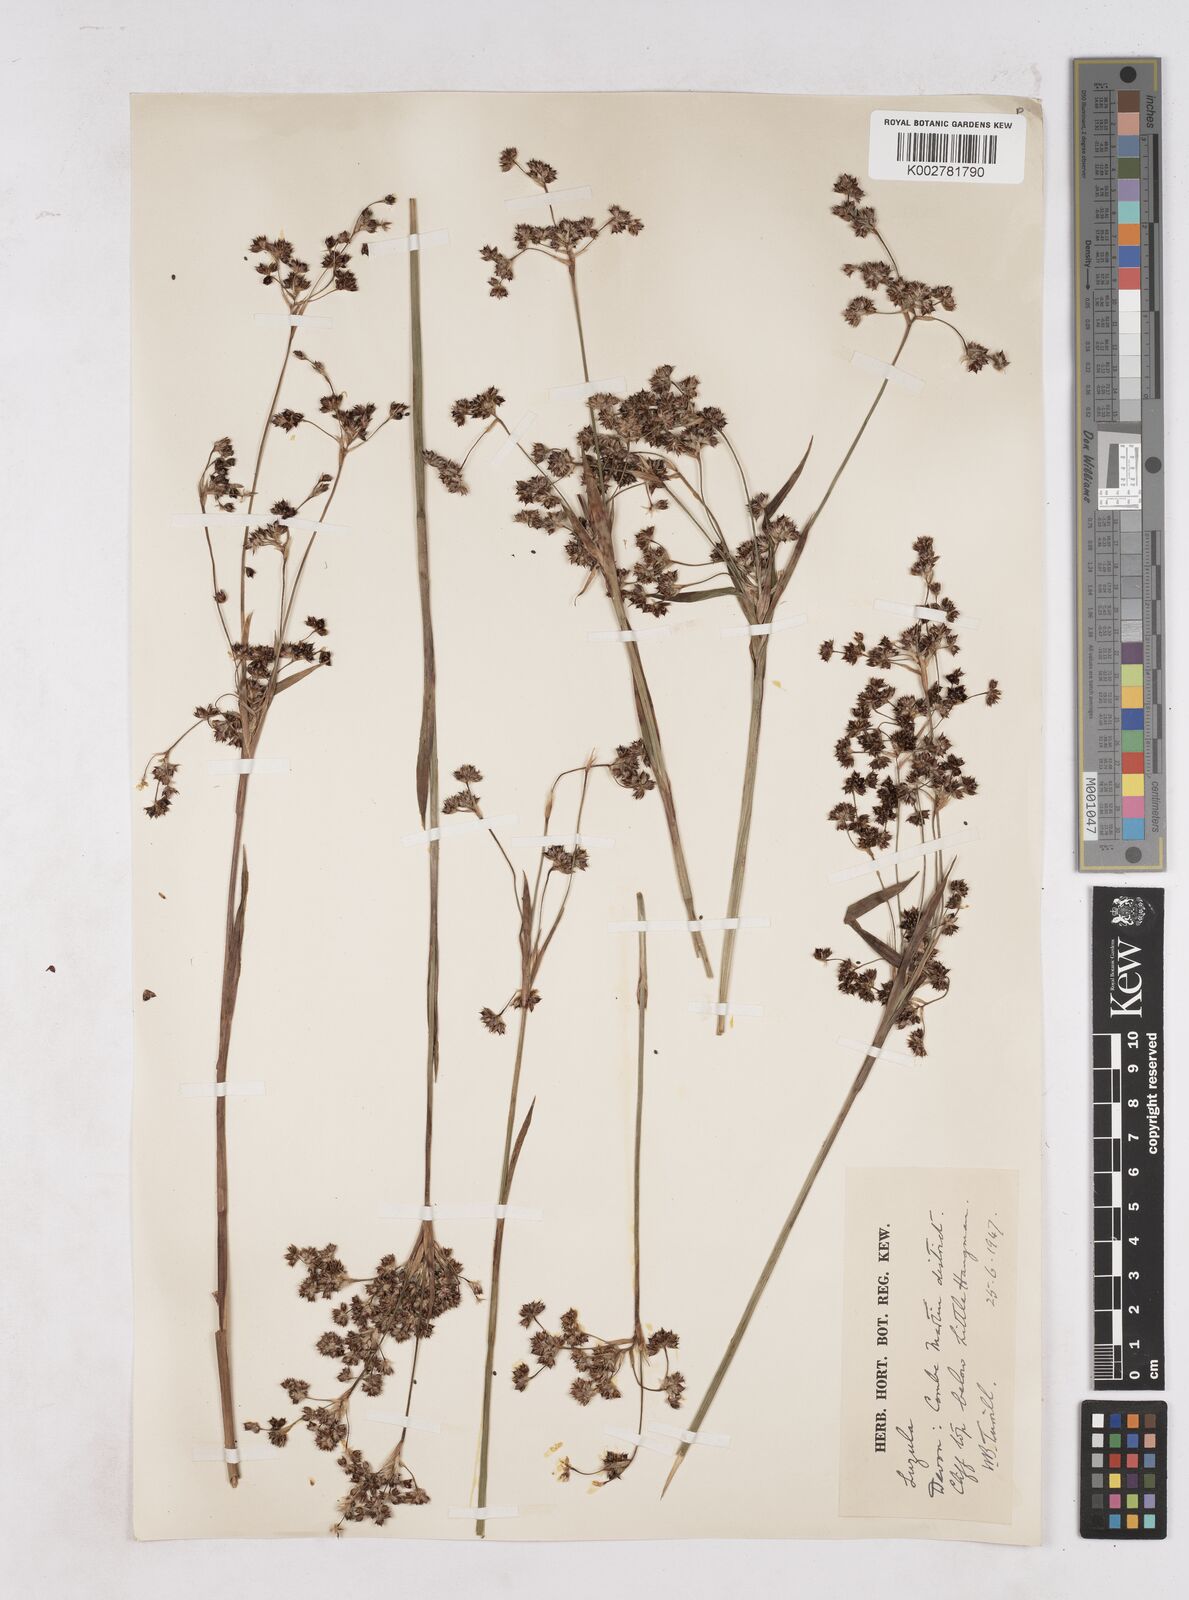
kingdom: Plantae
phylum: Tracheophyta
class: Liliopsida
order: Poales
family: Juncaceae
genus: Luzula
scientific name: Luzula
